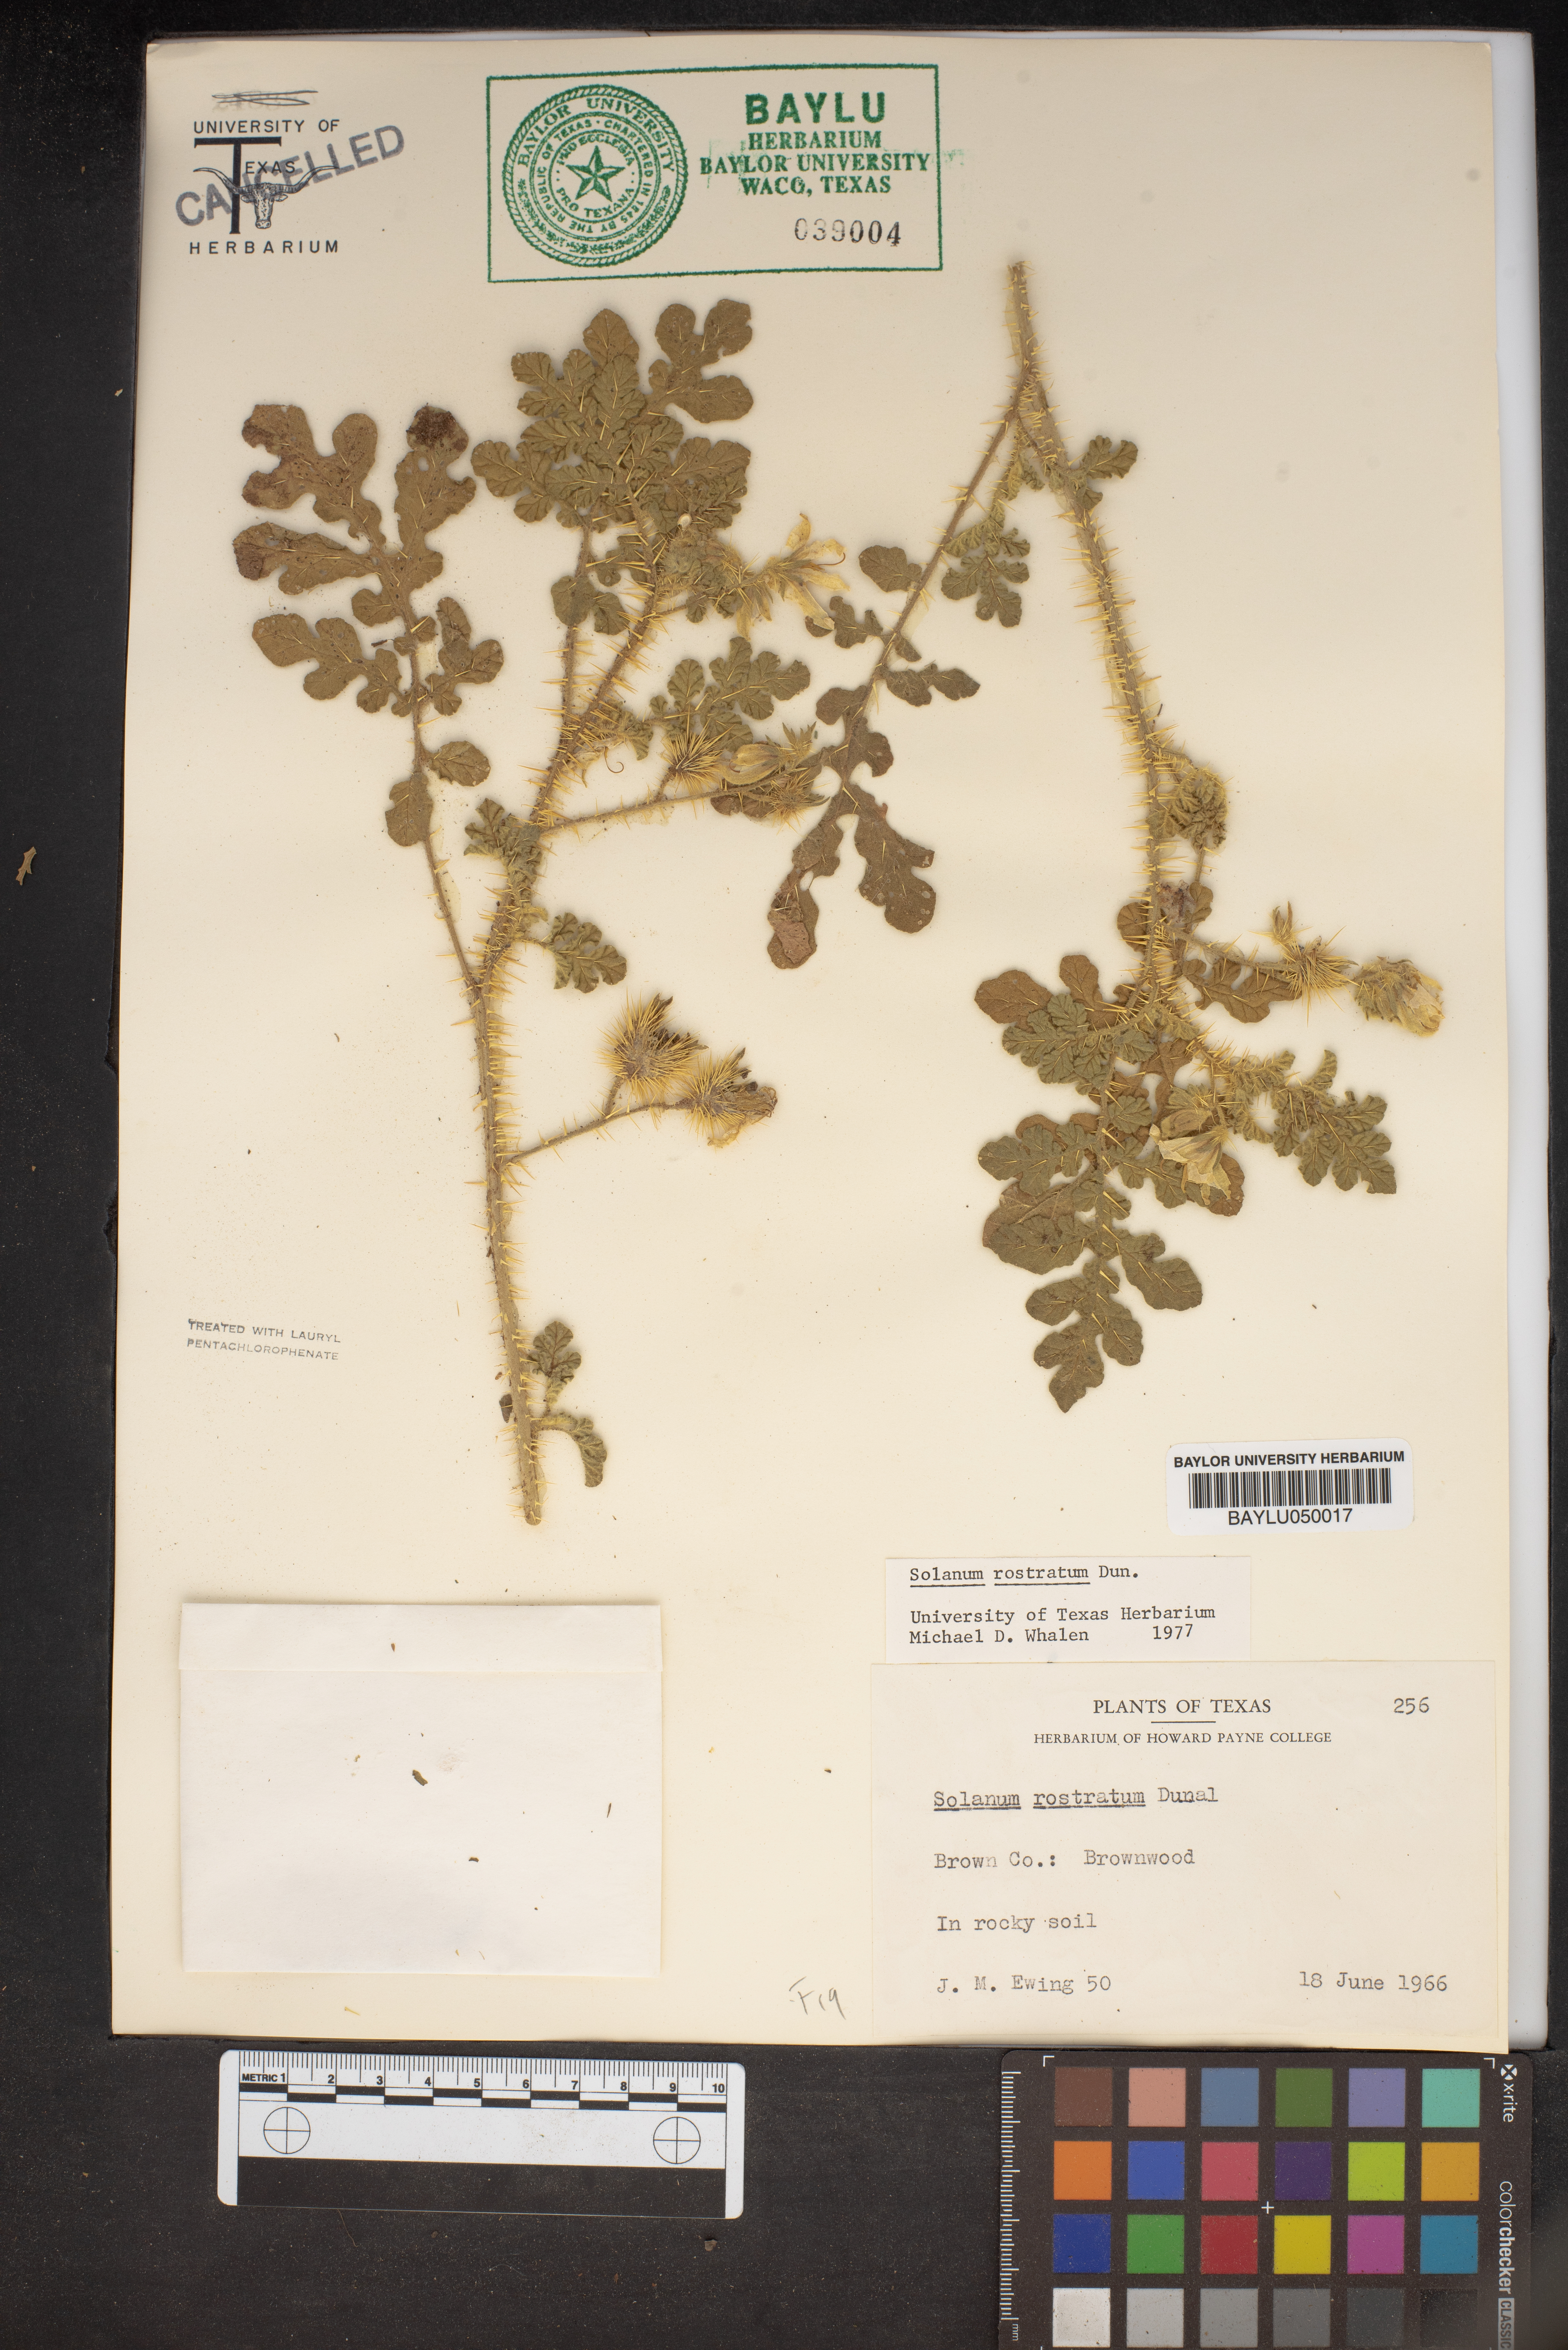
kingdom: Plantae
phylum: Tracheophyta
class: Magnoliopsida
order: Solanales
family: Solanaceae
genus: Solanum
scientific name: Solanum angustifolium
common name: Buffalobur nightshade
